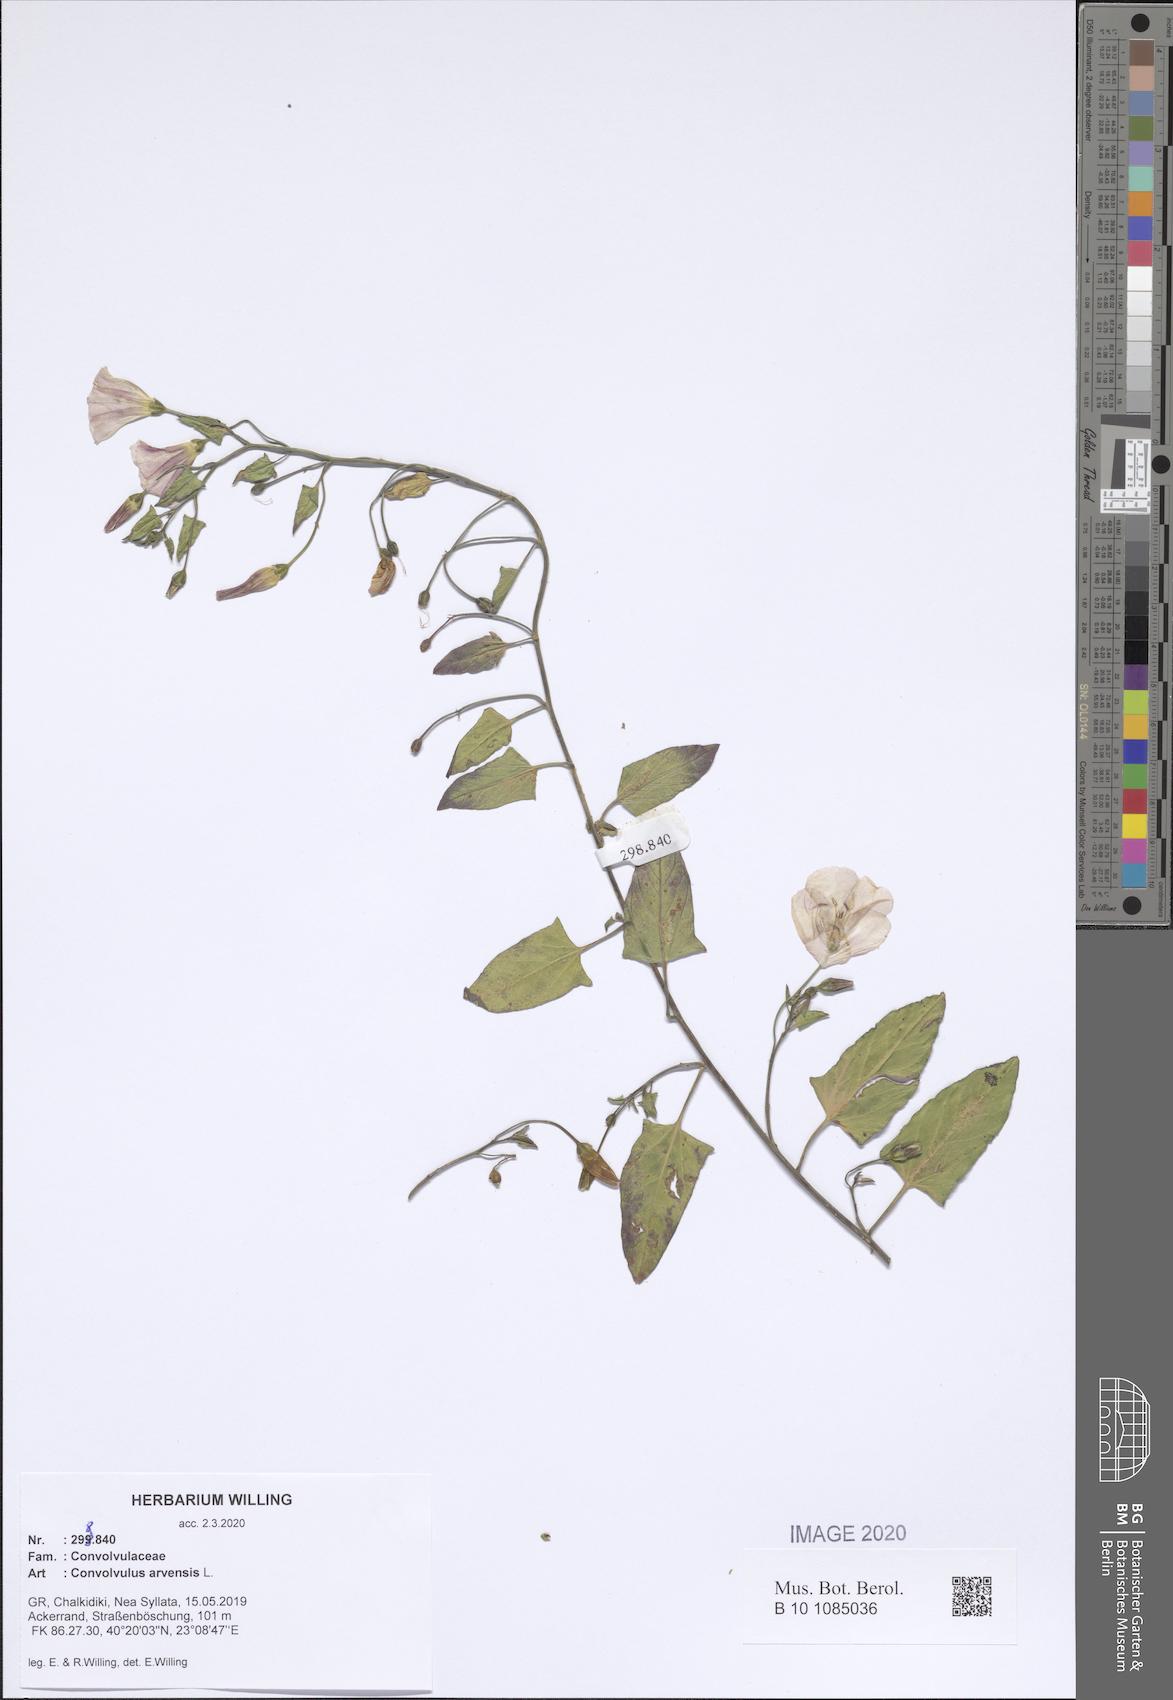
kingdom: Plantae
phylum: Tracheophyta
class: Magnoliopsida
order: Solanales
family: Convolvulaceae
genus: Convolvulus
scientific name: Convolvulus arvensis
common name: Field bindweed
